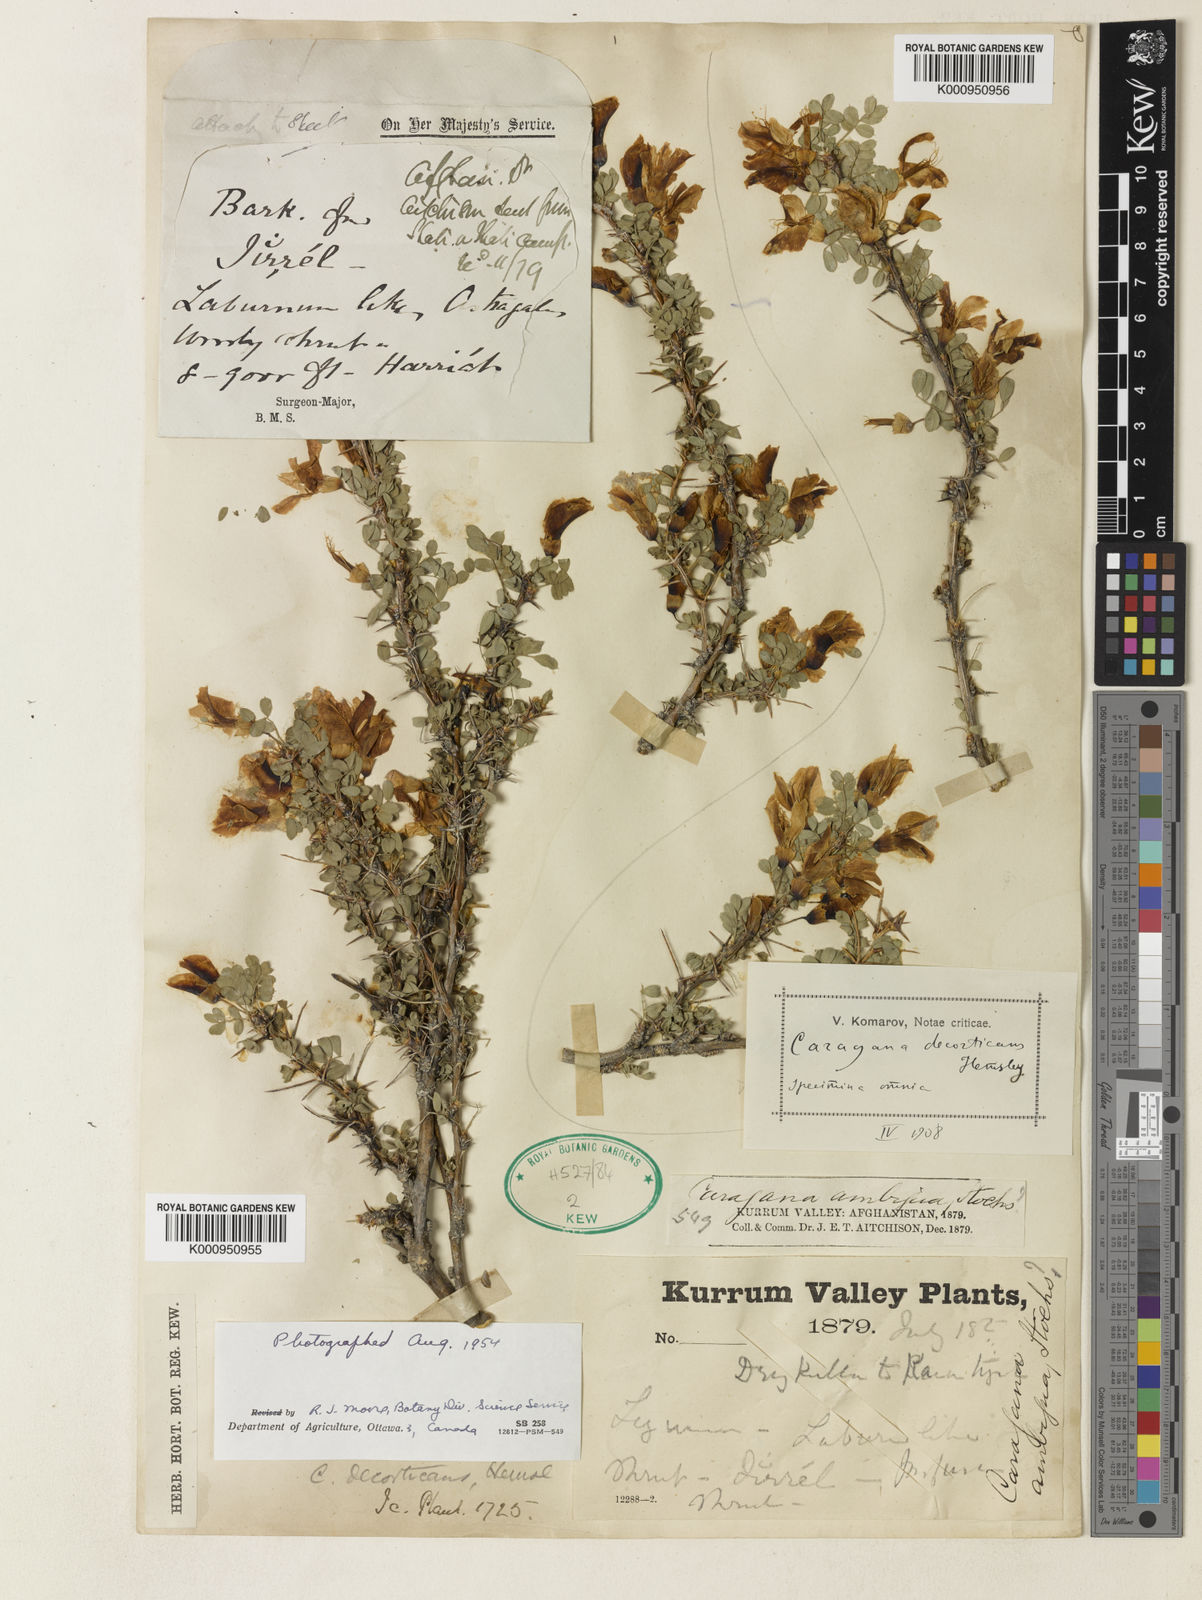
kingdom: Plantae
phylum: Tracheophyta
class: Magnoliopsida
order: Fabales
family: Fabaceae
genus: Caragana
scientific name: Caragana decorticans
